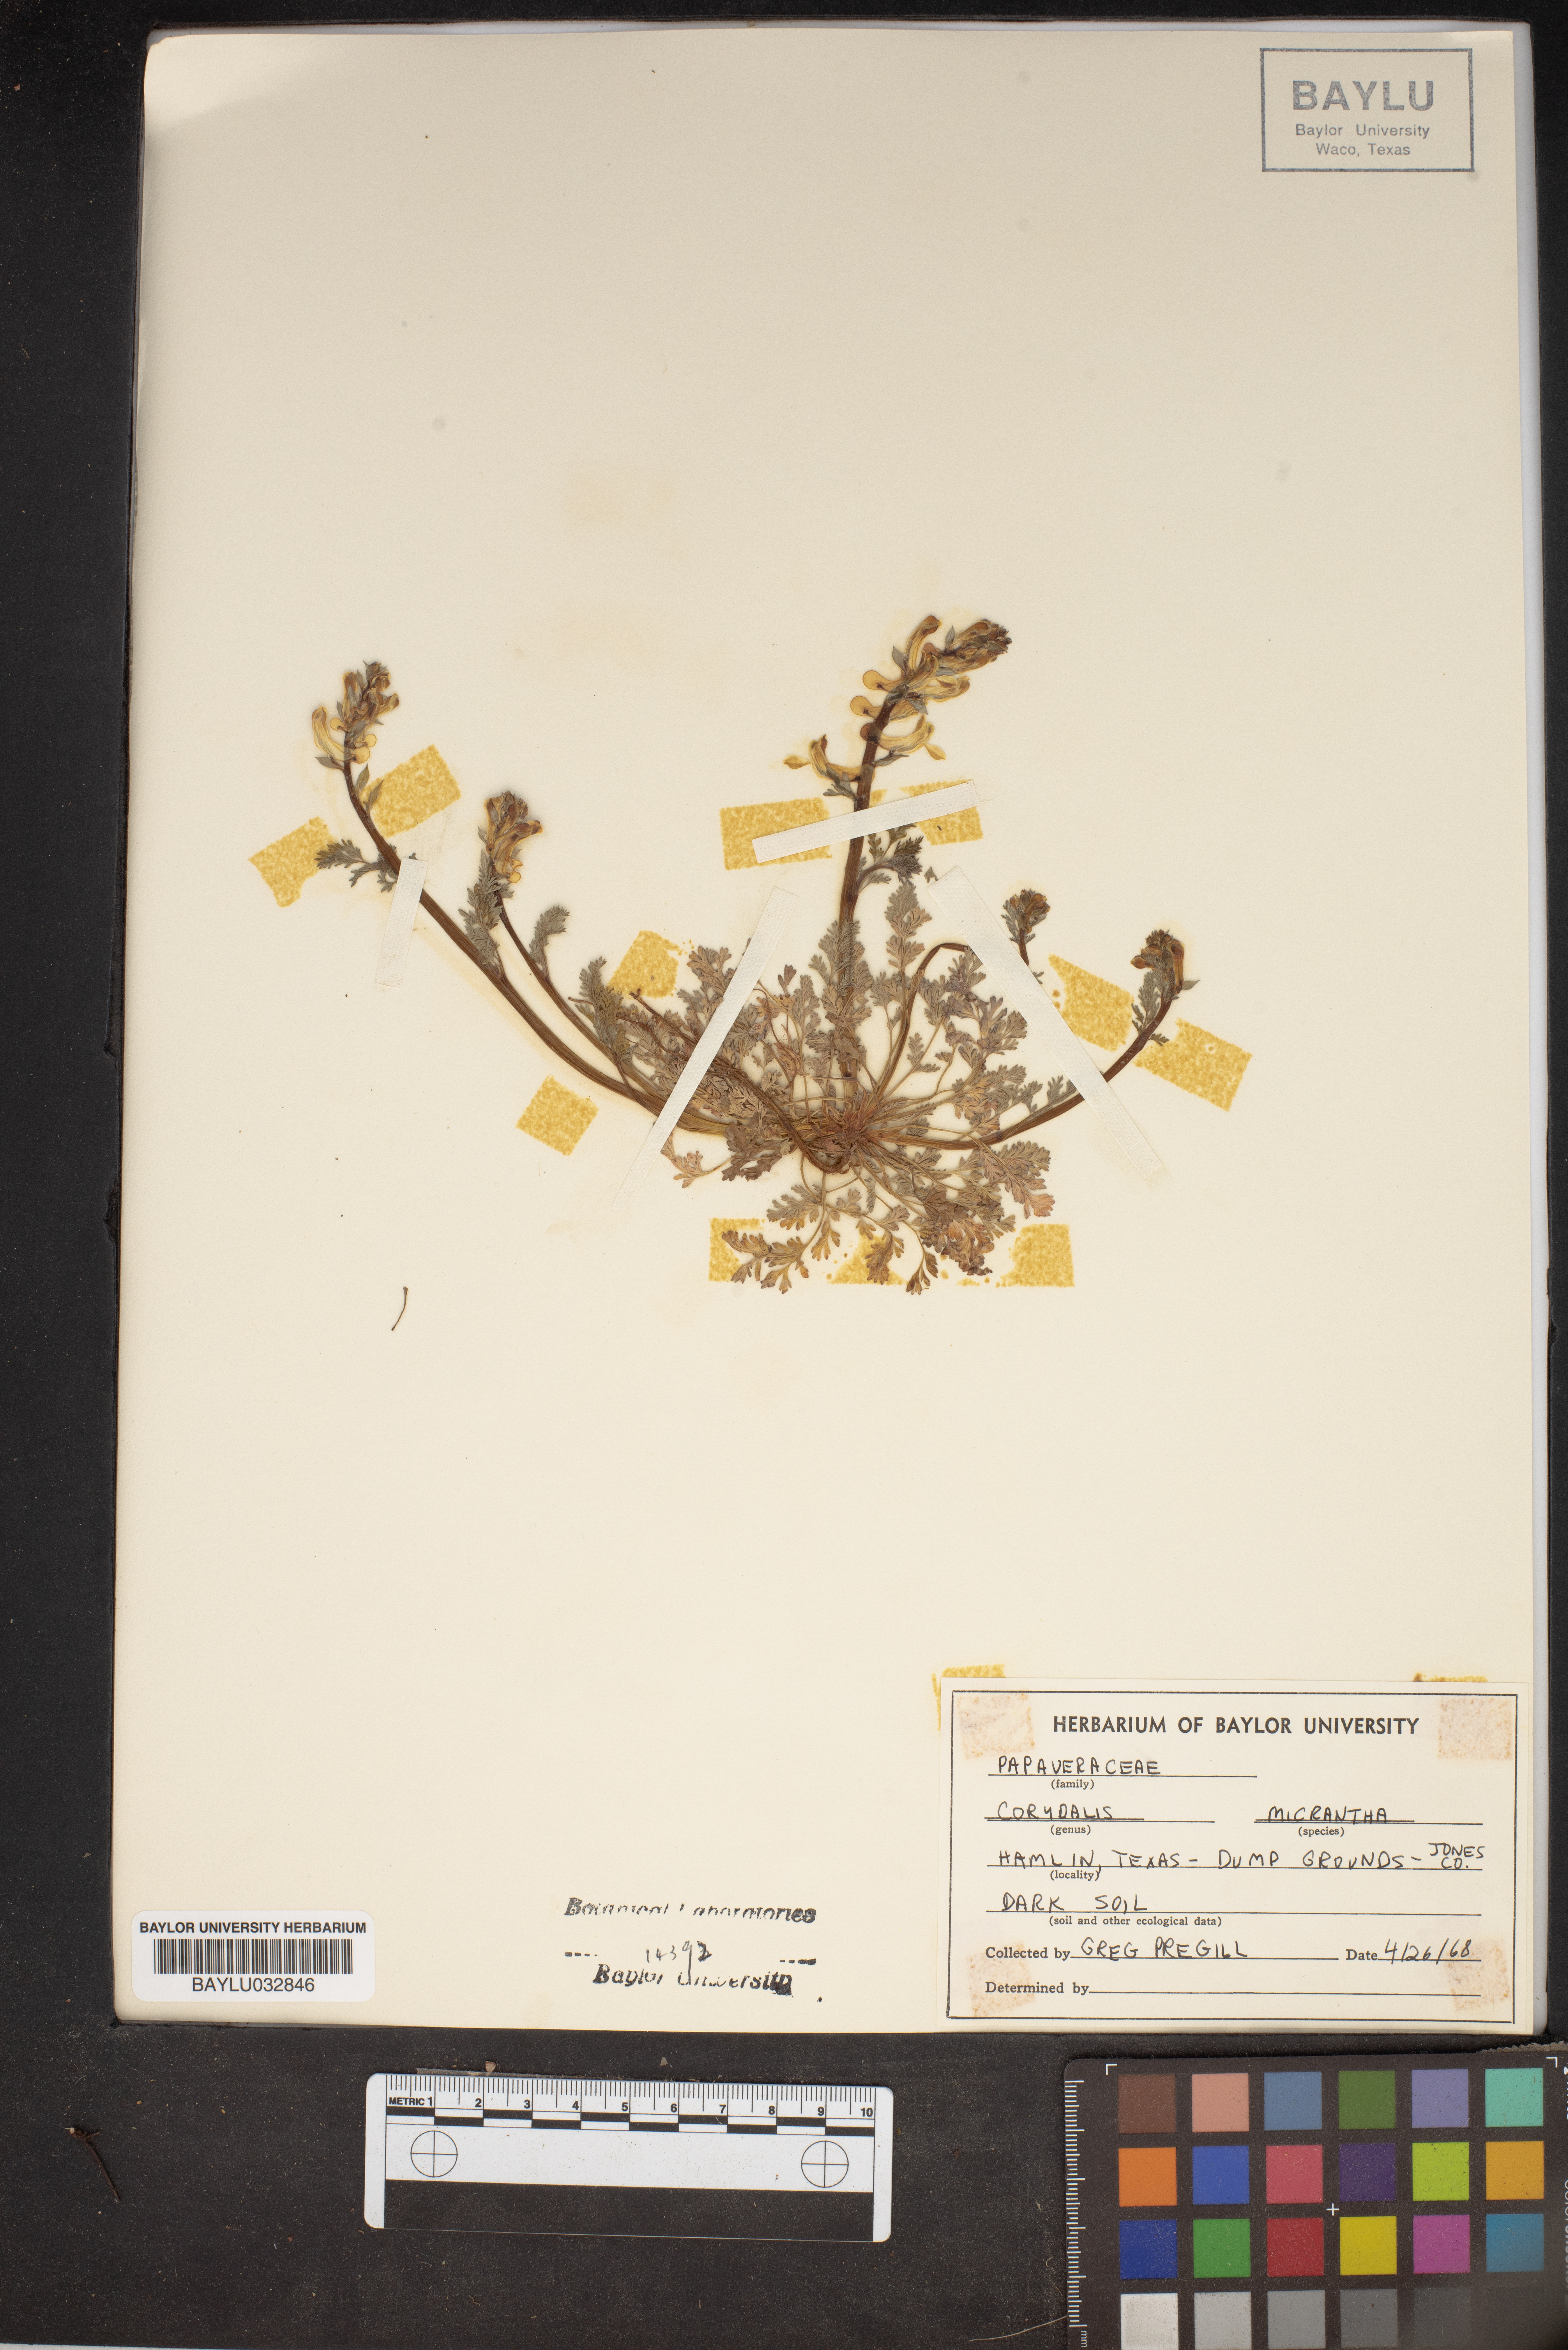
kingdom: Plantae
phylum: Tracheophyta
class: Magnoliopsida
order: Ranunculales
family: Papaveraceae
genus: Corydalis
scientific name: Corydalis micrantha
